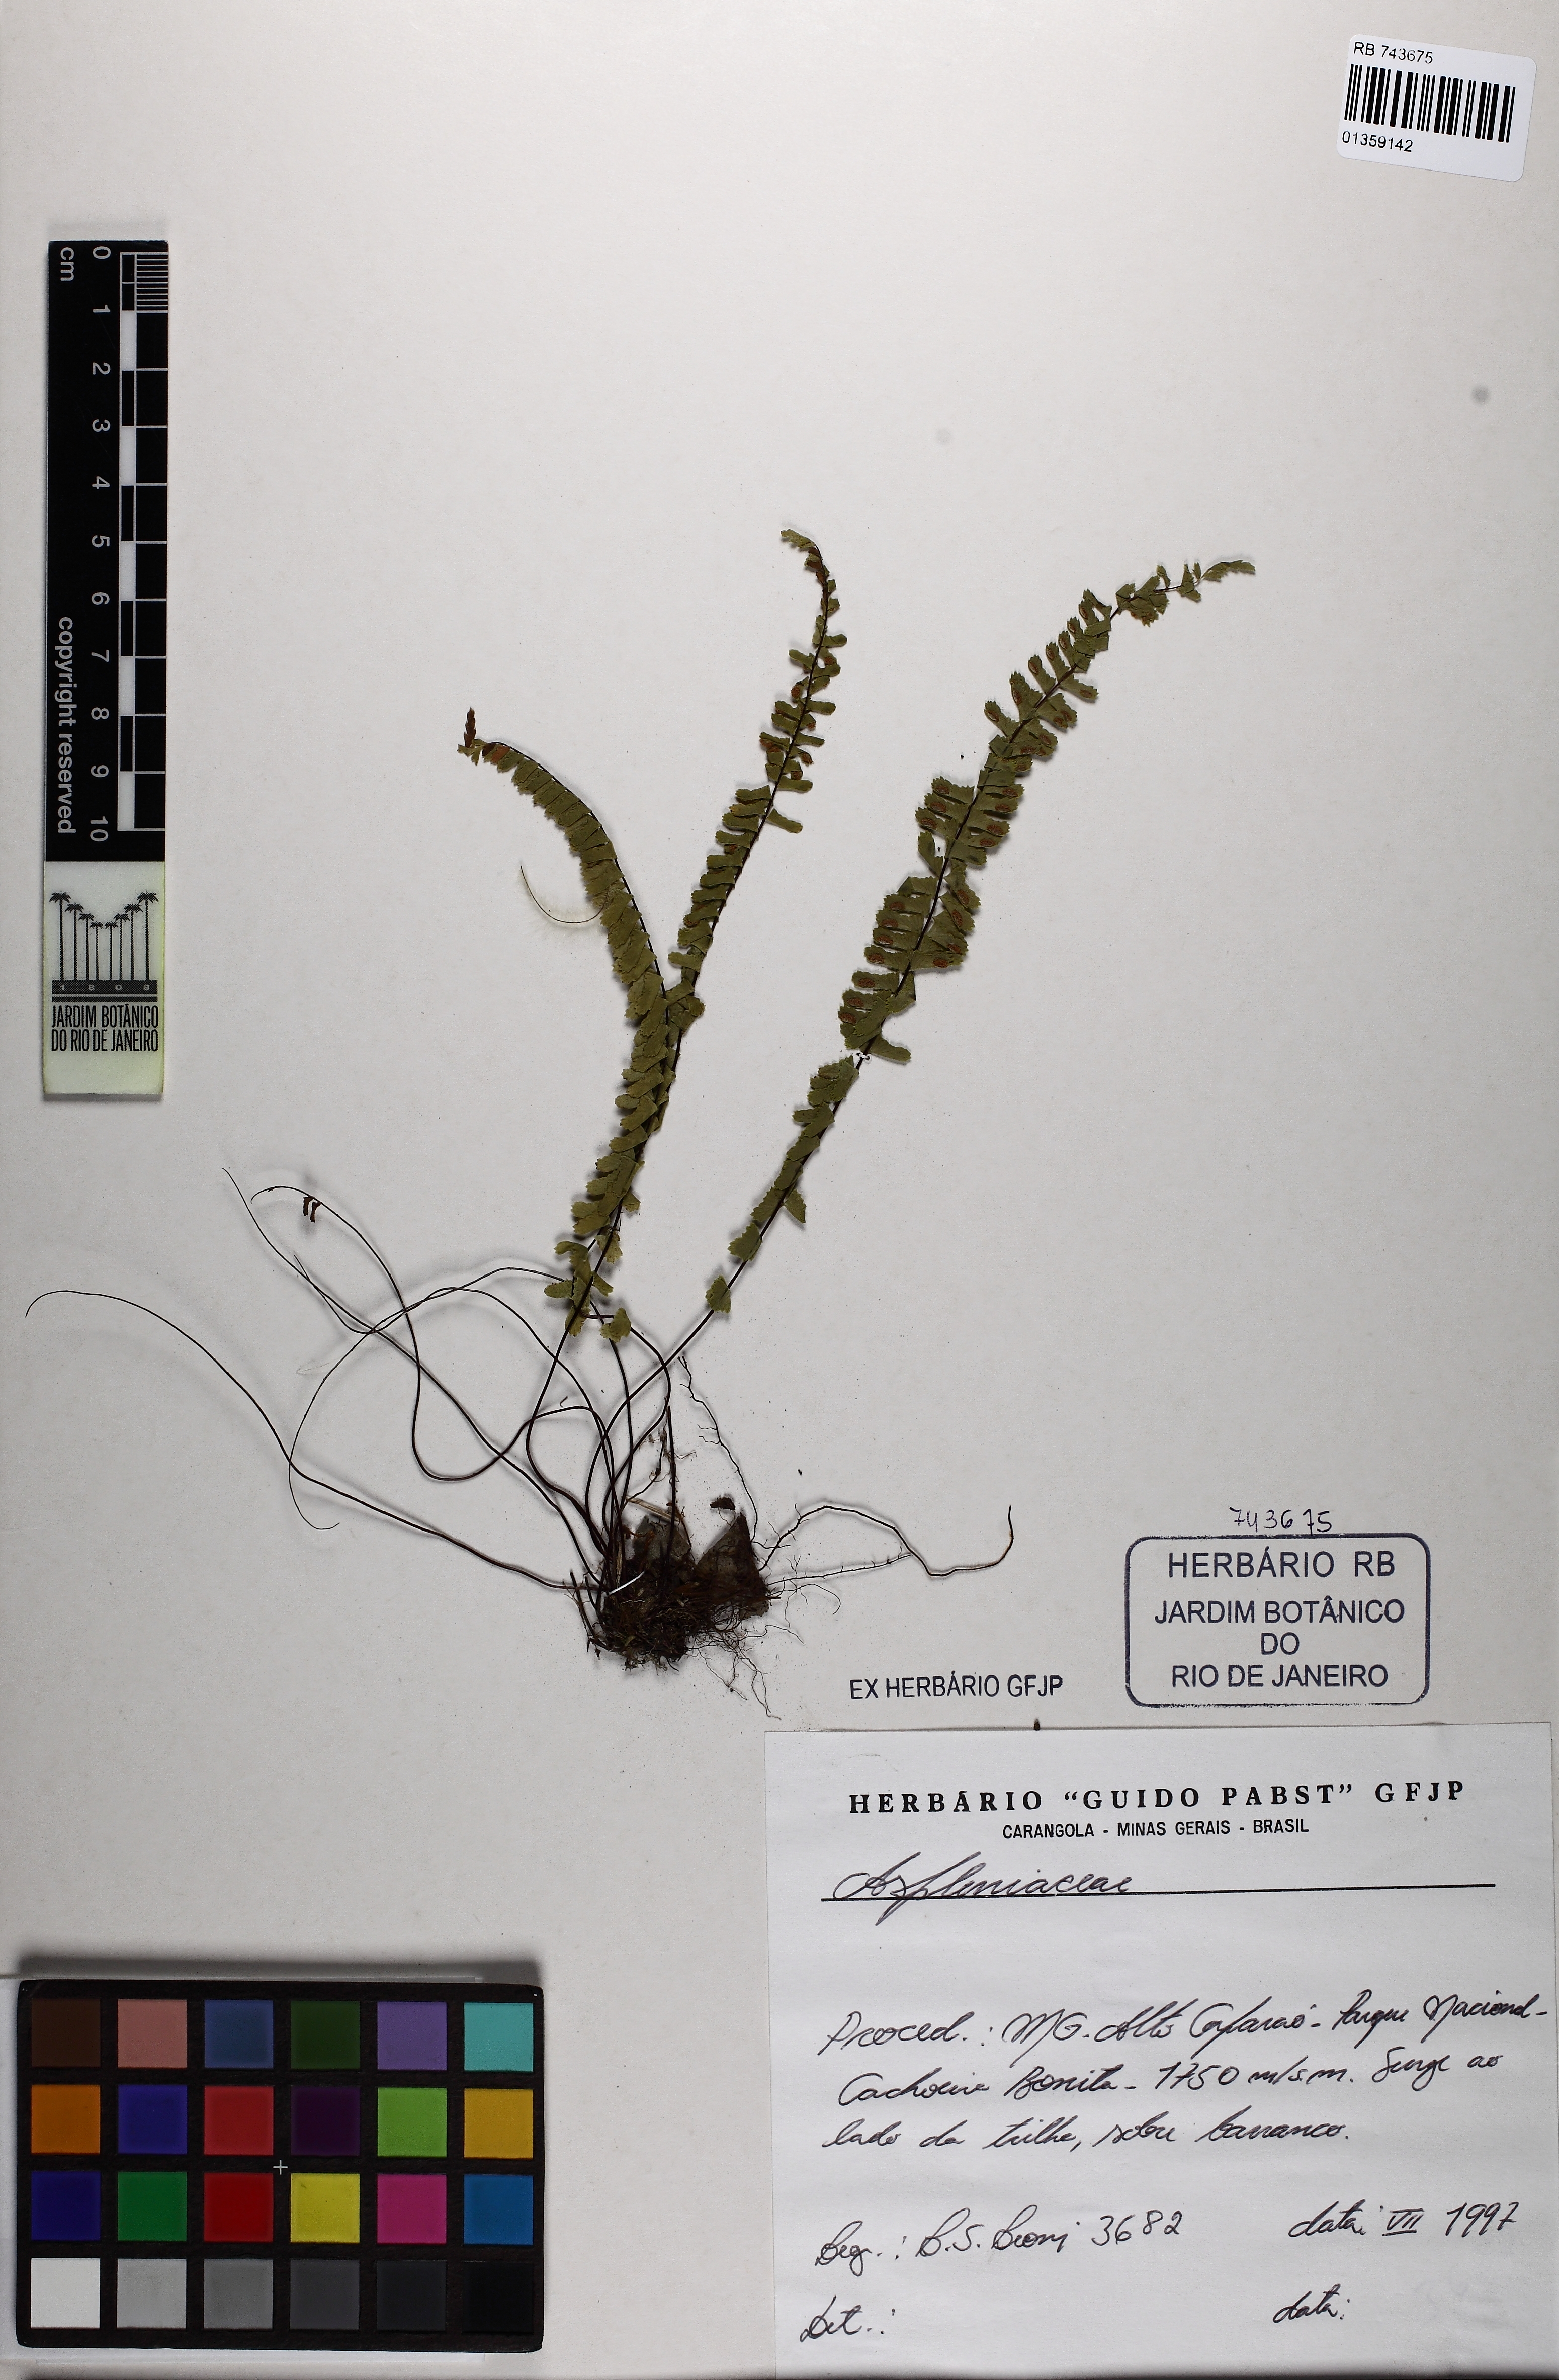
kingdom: Plantae
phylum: Tracheophyta
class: Polypodiopsida
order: Polypodiales
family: Aspleniaceae
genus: Asplenium
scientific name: Asplenium monanthes
